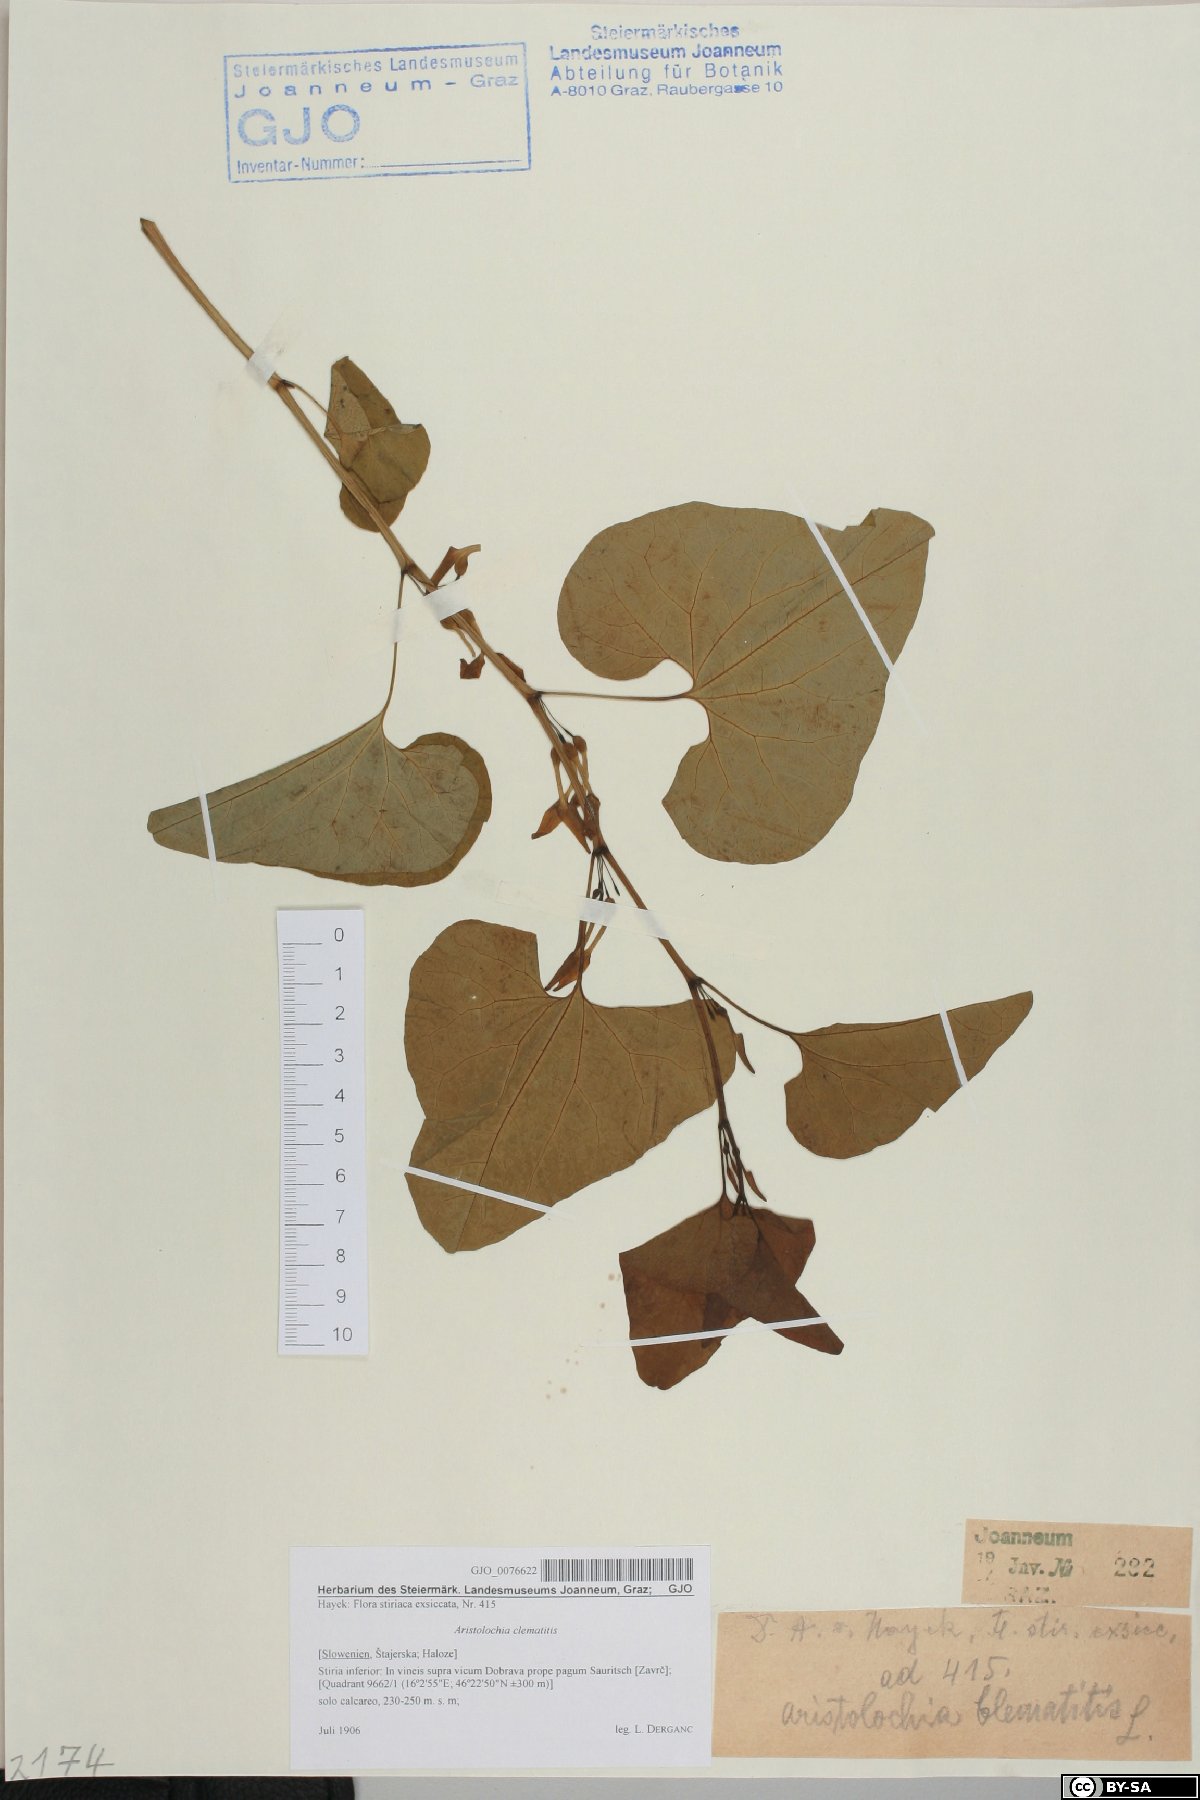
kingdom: Plantae
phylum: Tracheophyta
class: Magnoliopsida
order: Piperales
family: Aristolochiaceae
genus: Aristolochia
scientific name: Aristolochia clematitis
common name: Birthwort
